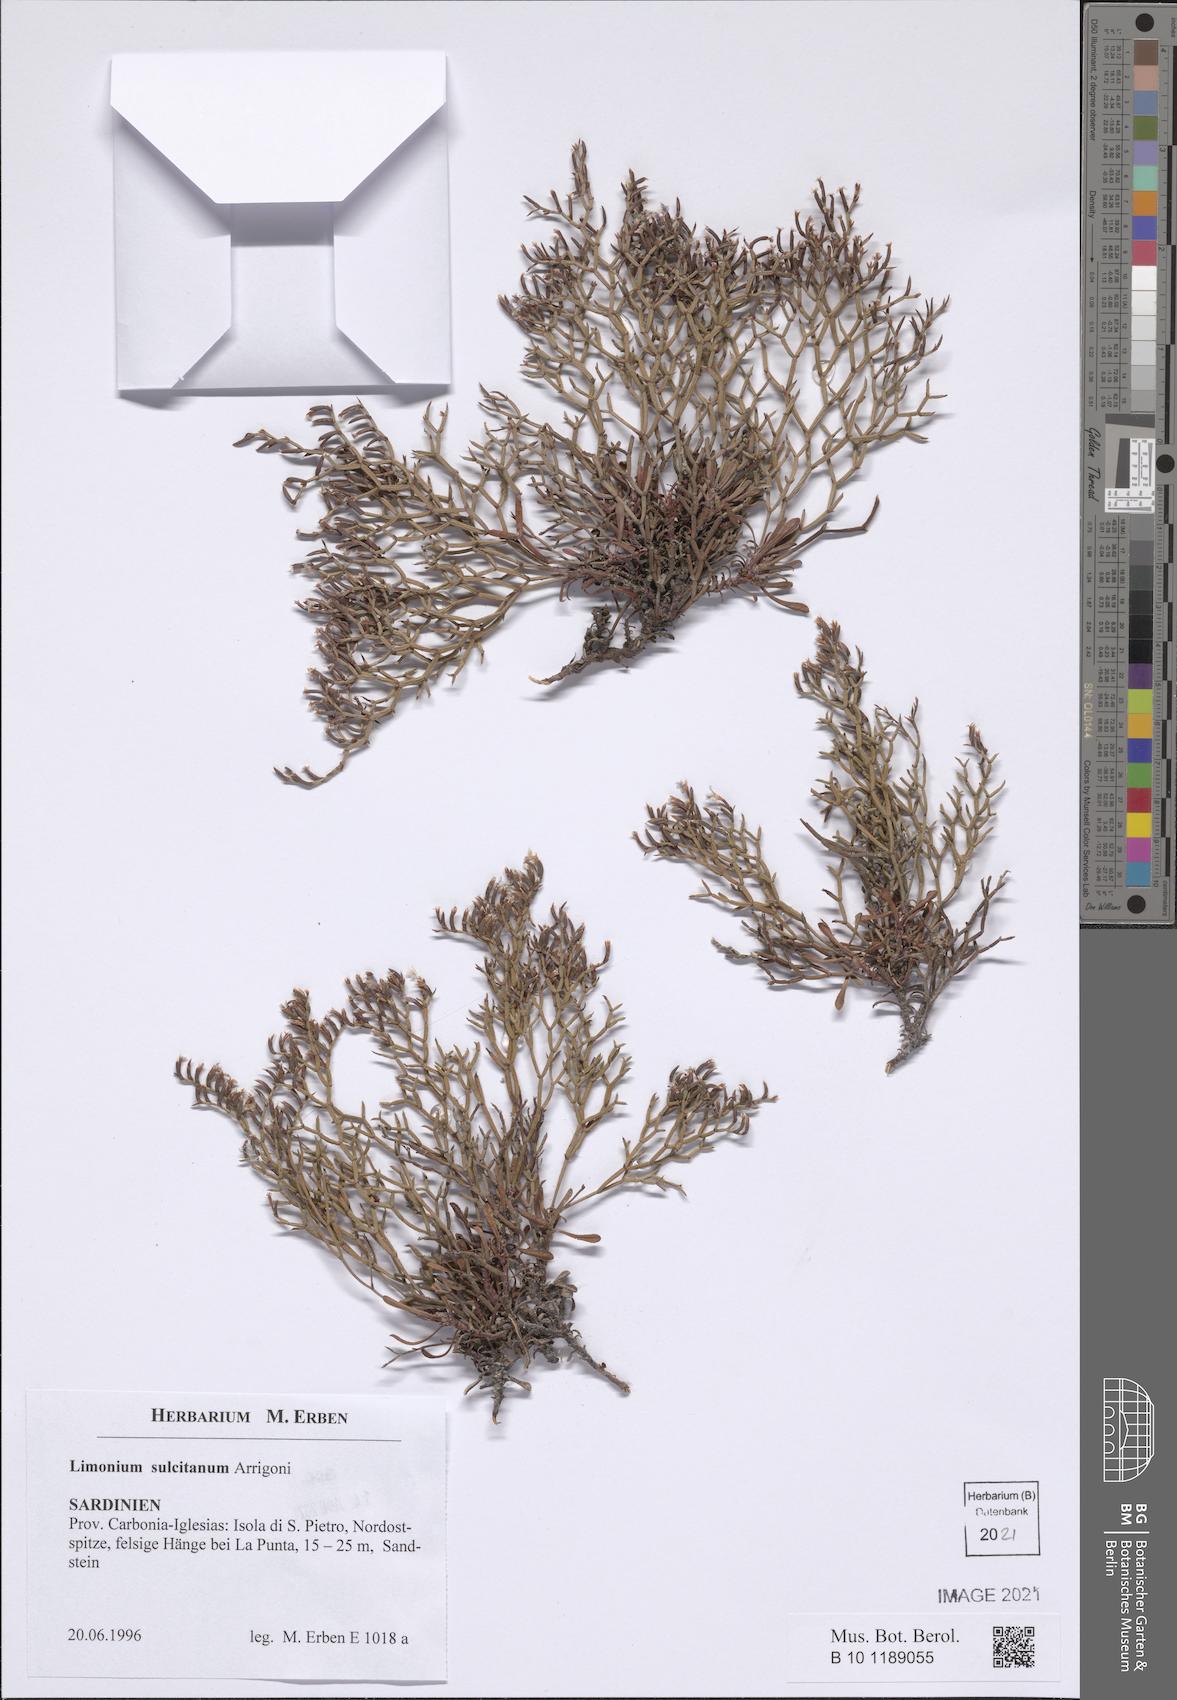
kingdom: Plantae
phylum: Tracheophyta
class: Magnoliopsida
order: Caryophyllales
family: Plumbaginaceae
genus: Limonium
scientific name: Limonium sulcitanum
